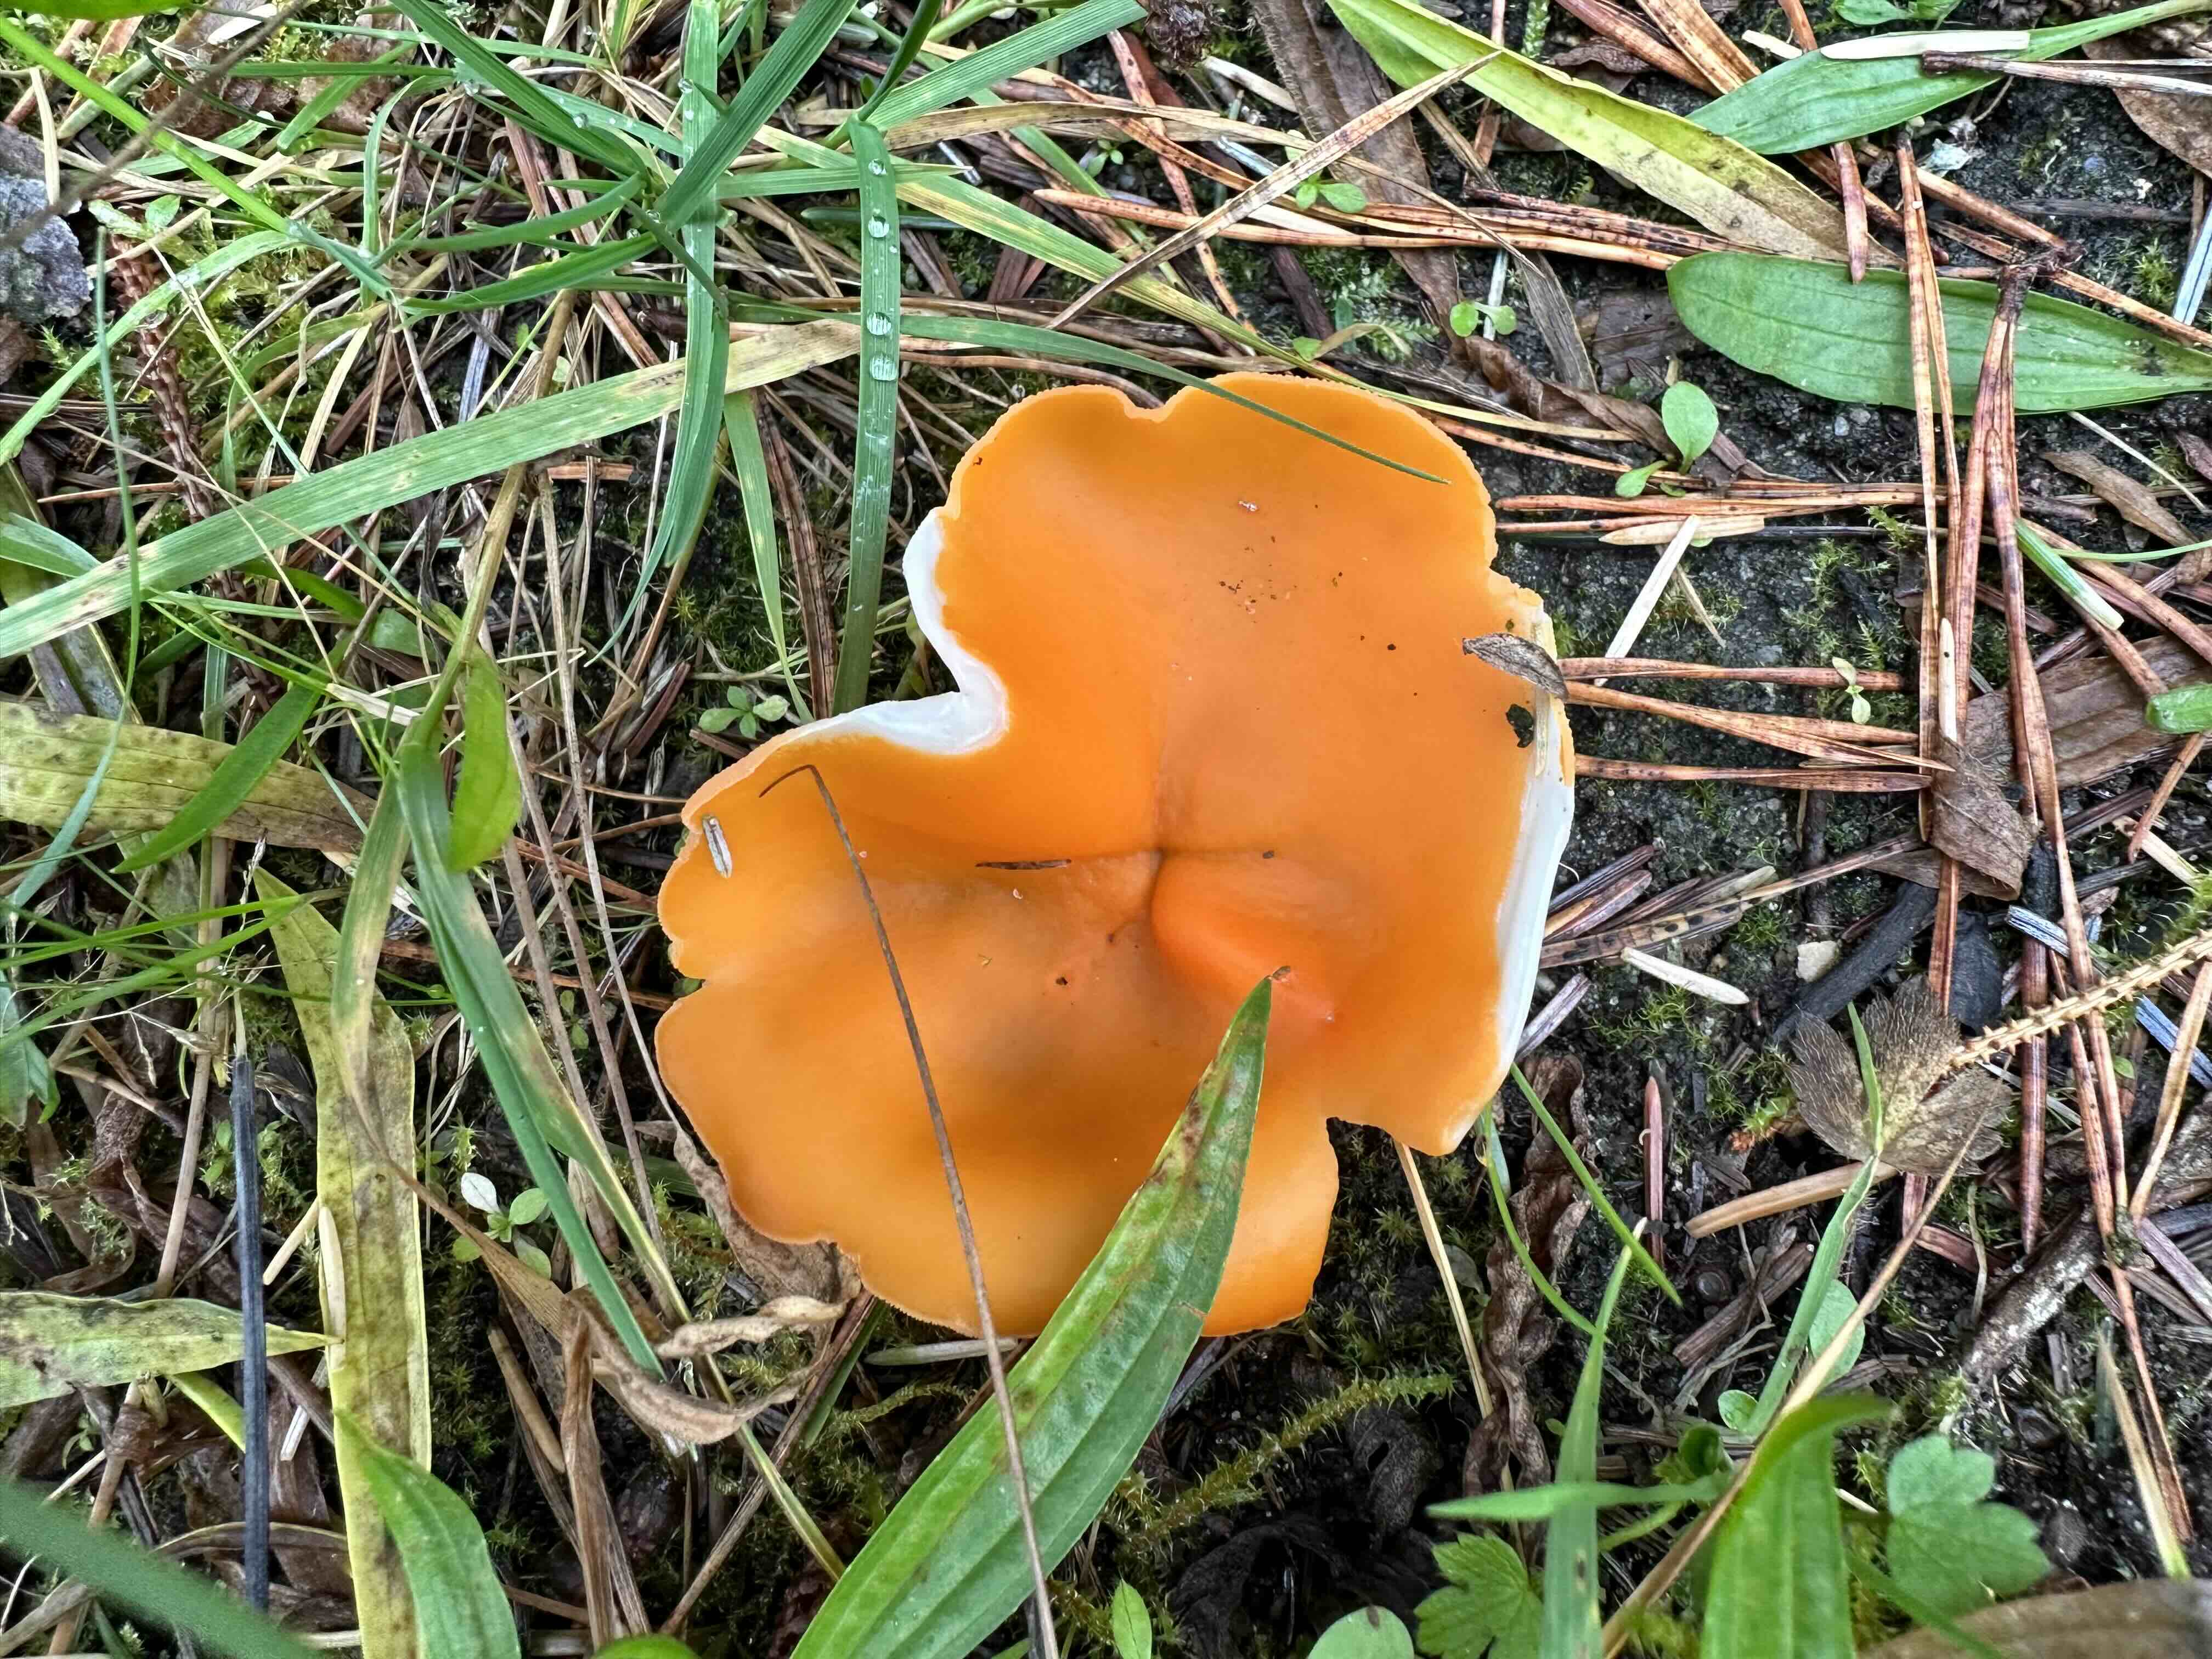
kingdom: Fungi
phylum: Ascomycota
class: Pezizomycetes
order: Pezizales
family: Pyronemataceae
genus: Aleuria
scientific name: Aleuria aurantia
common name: almindelig orangebæger
